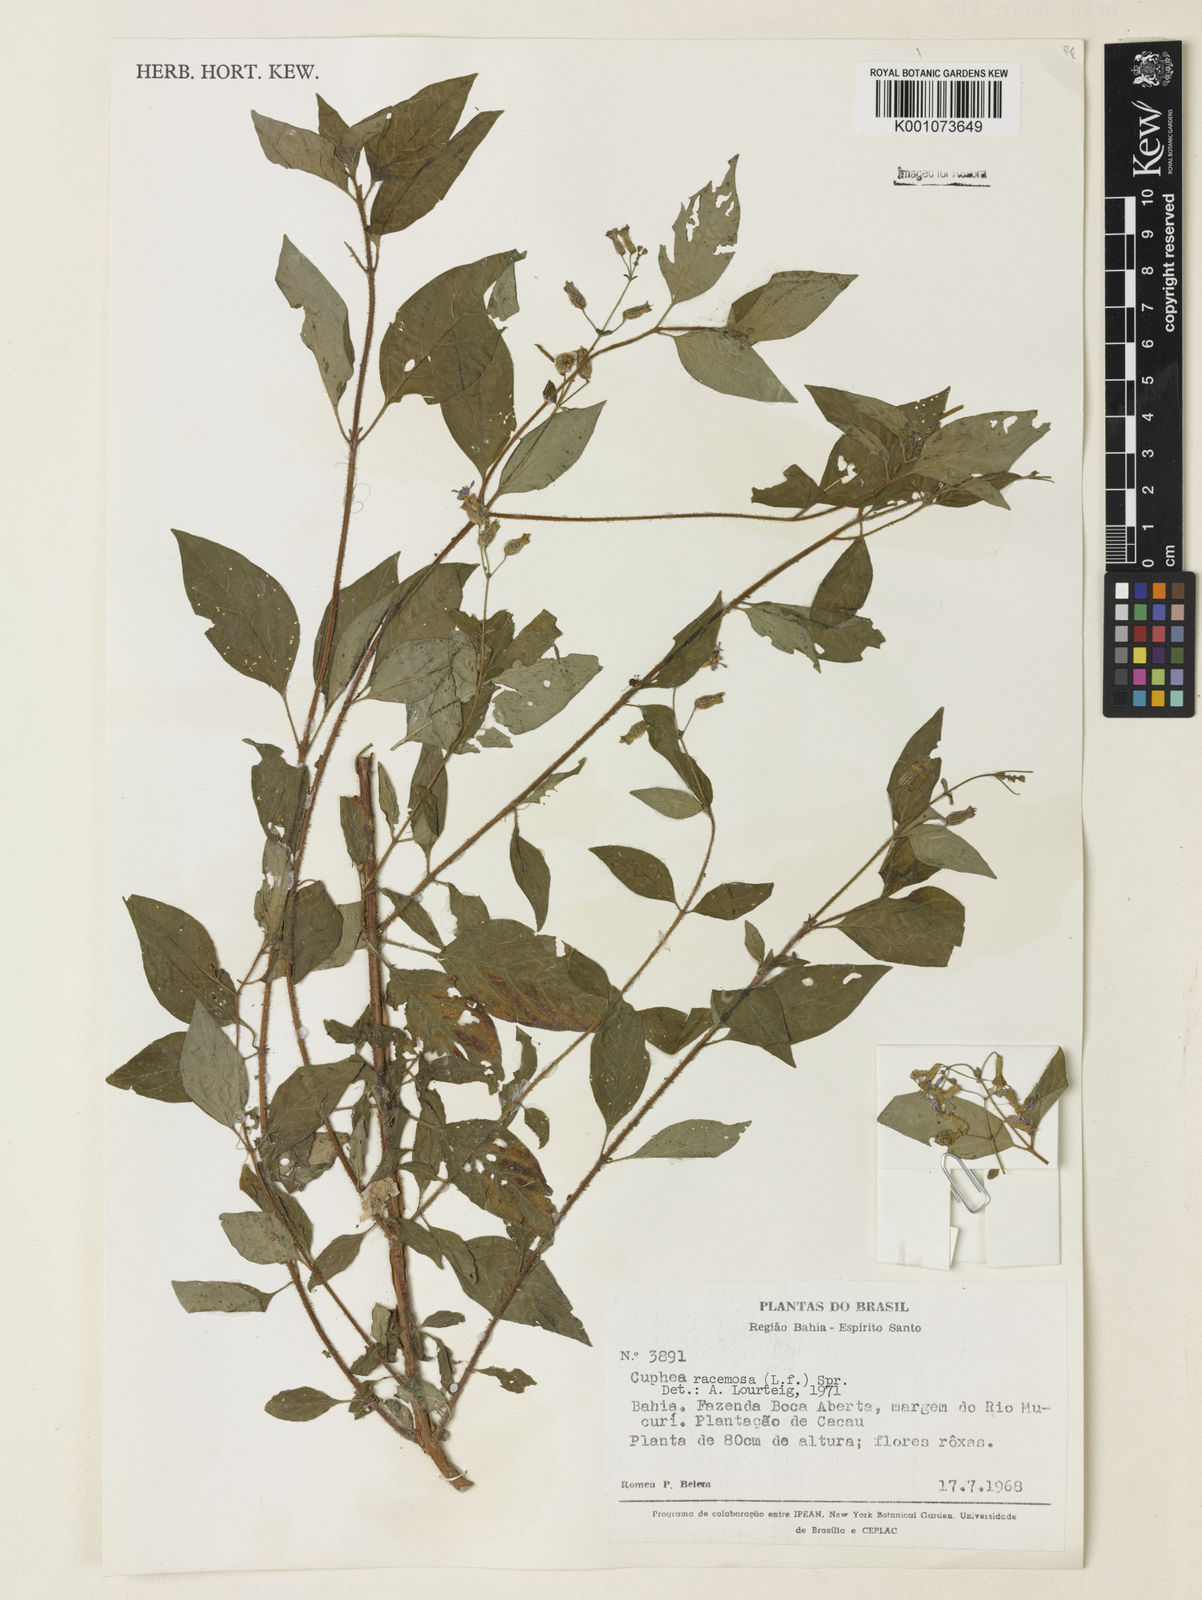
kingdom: Plantae
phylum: Tracheophyta
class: Magnoliopsida
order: Myrtales
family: Lythraceae
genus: Cuphea
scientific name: Cuphea racemosa
